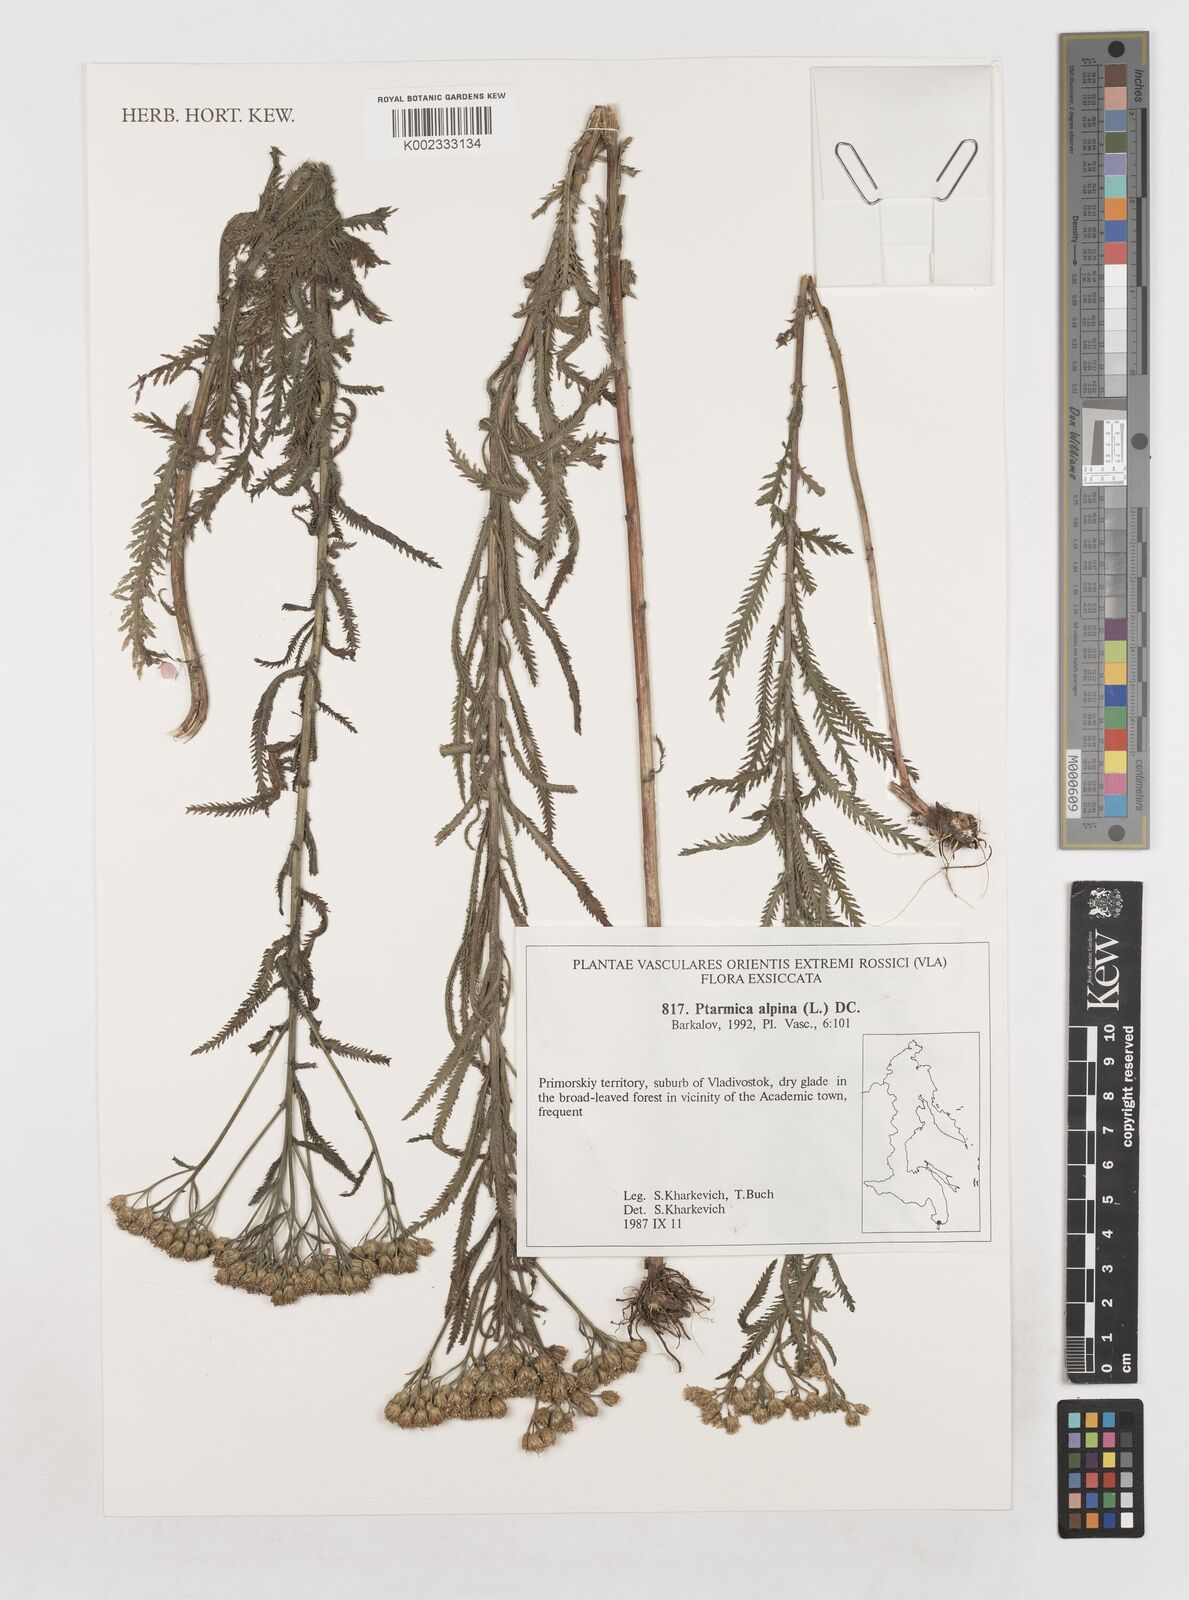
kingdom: Plantae
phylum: Tracheophyta
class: Magnoliopsida
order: Asterales
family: Asteraceae
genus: Achillea
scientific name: Achillea alpina
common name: Siberian yarrow
